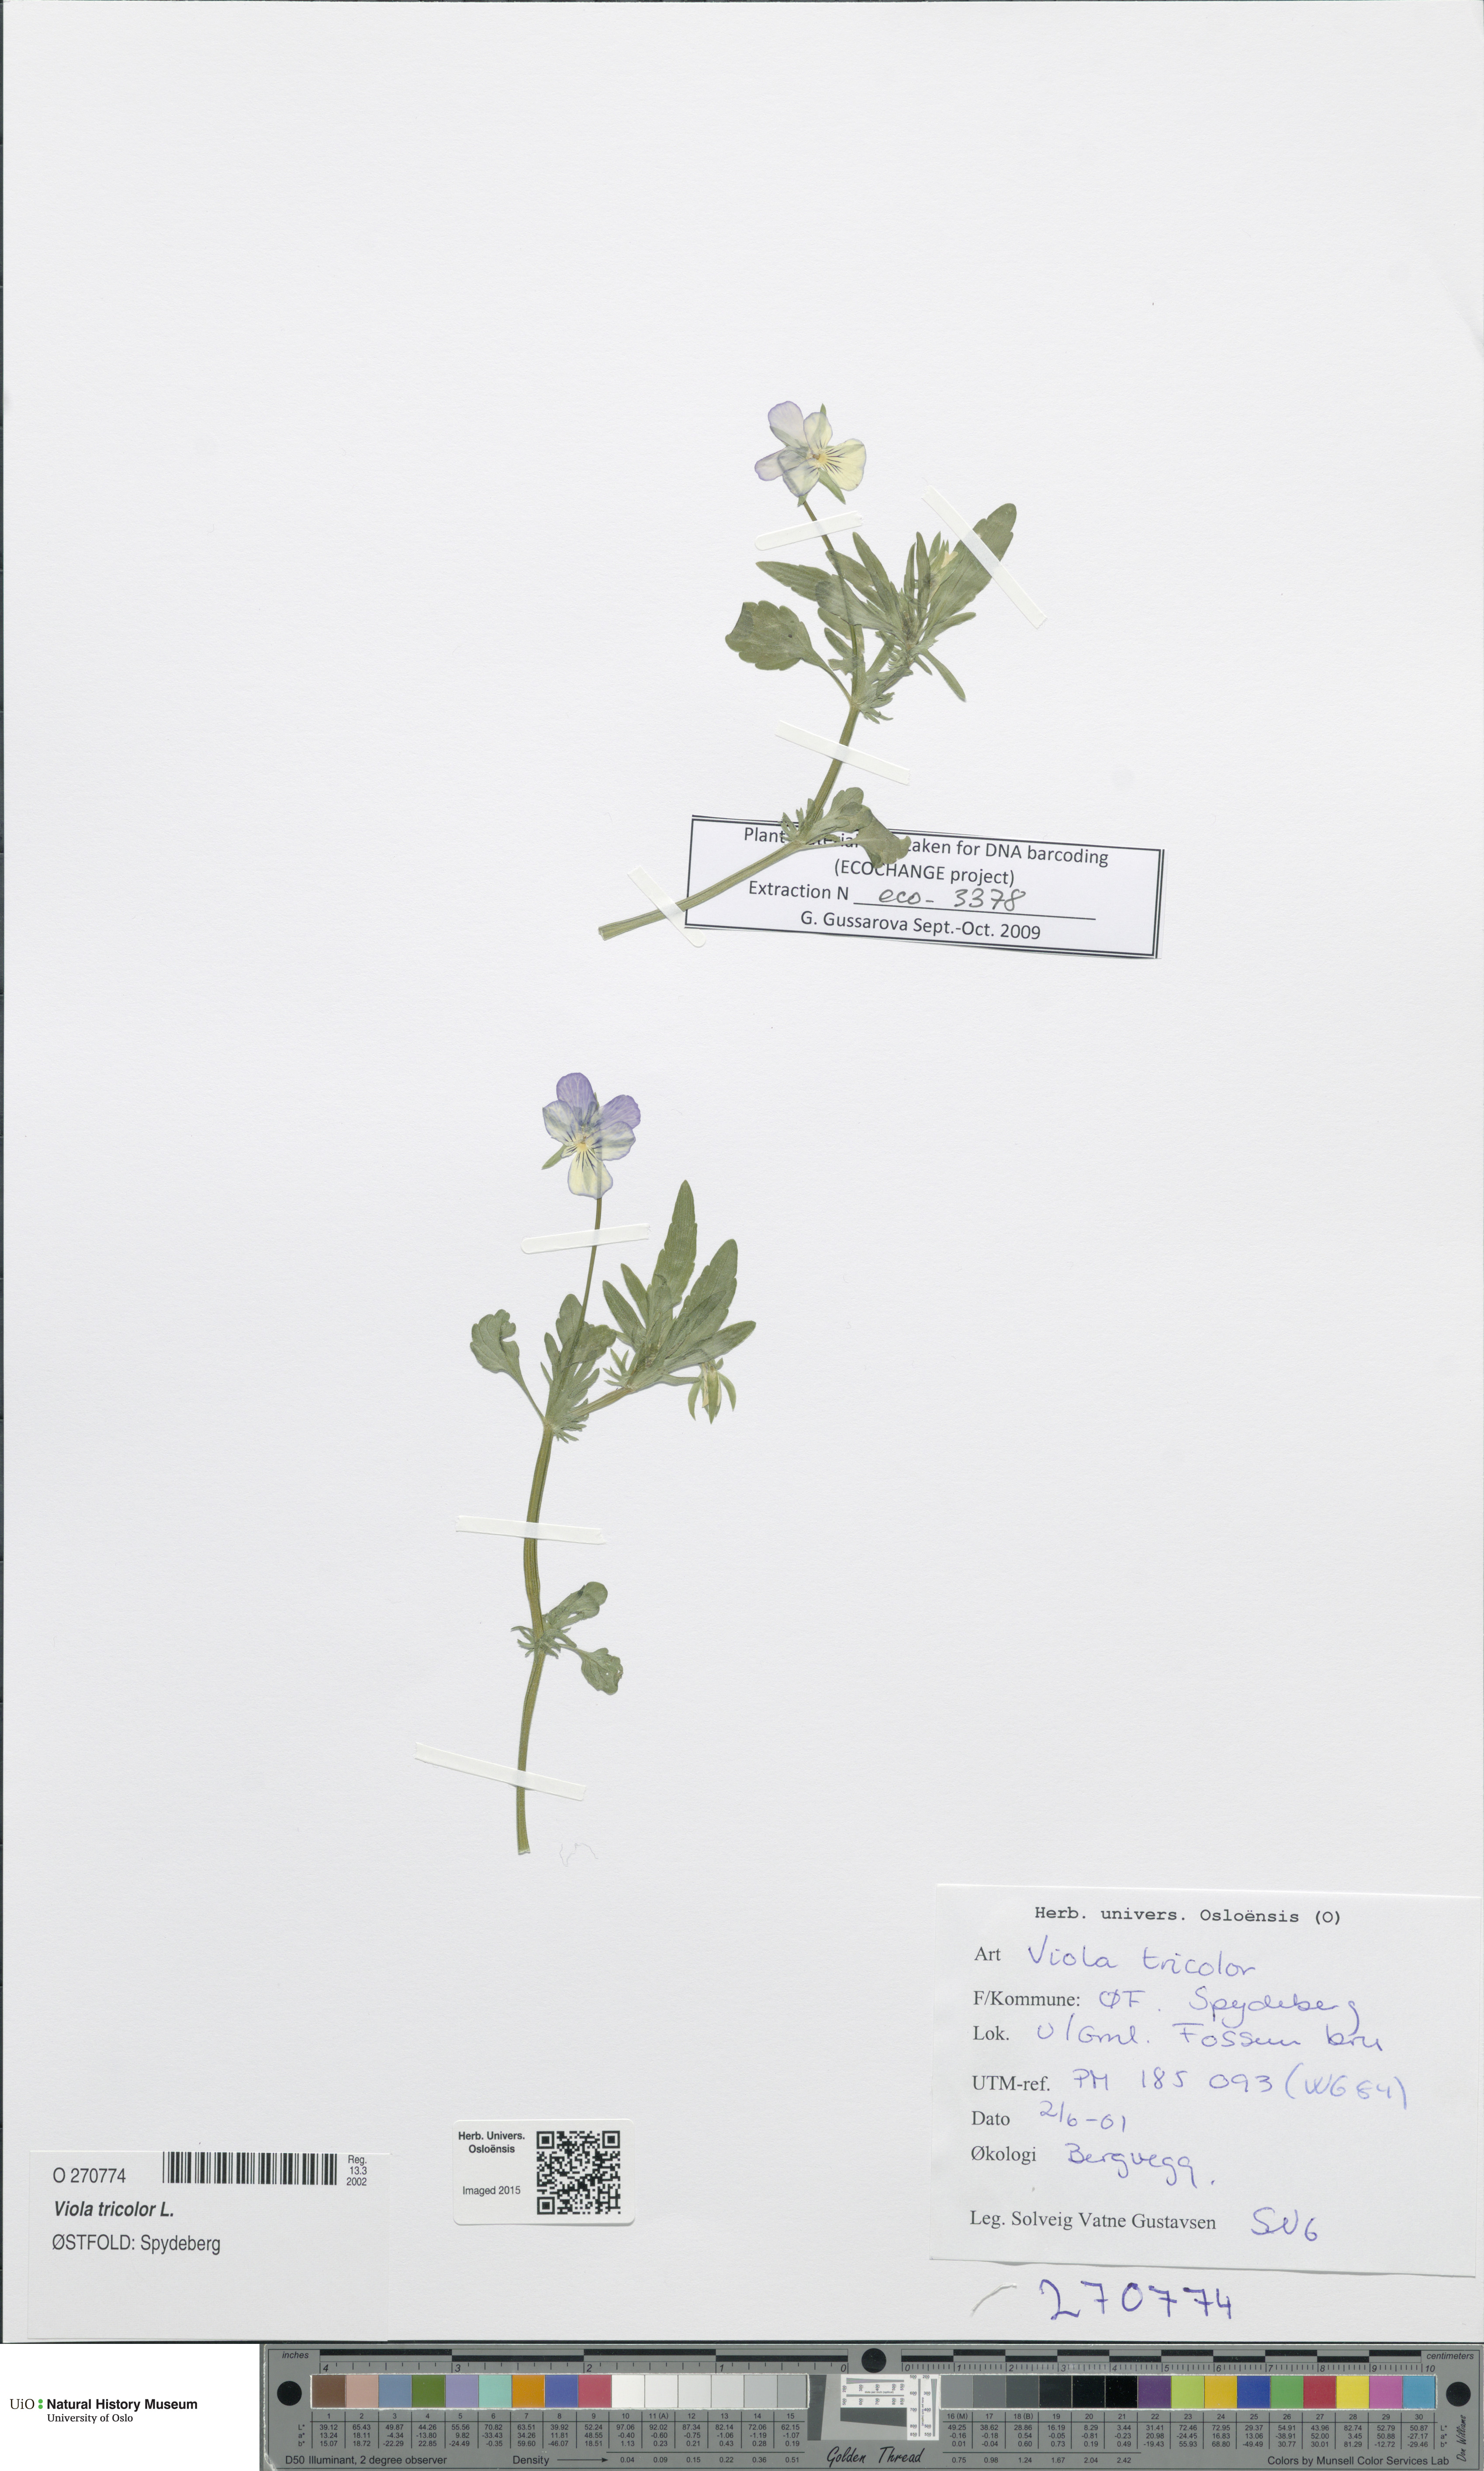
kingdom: Plantae
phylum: Tracheophyta
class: Magnoliopsida
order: Malpighiales
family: Violaceae
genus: Viola
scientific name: Viola tricolor
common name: Pansy
